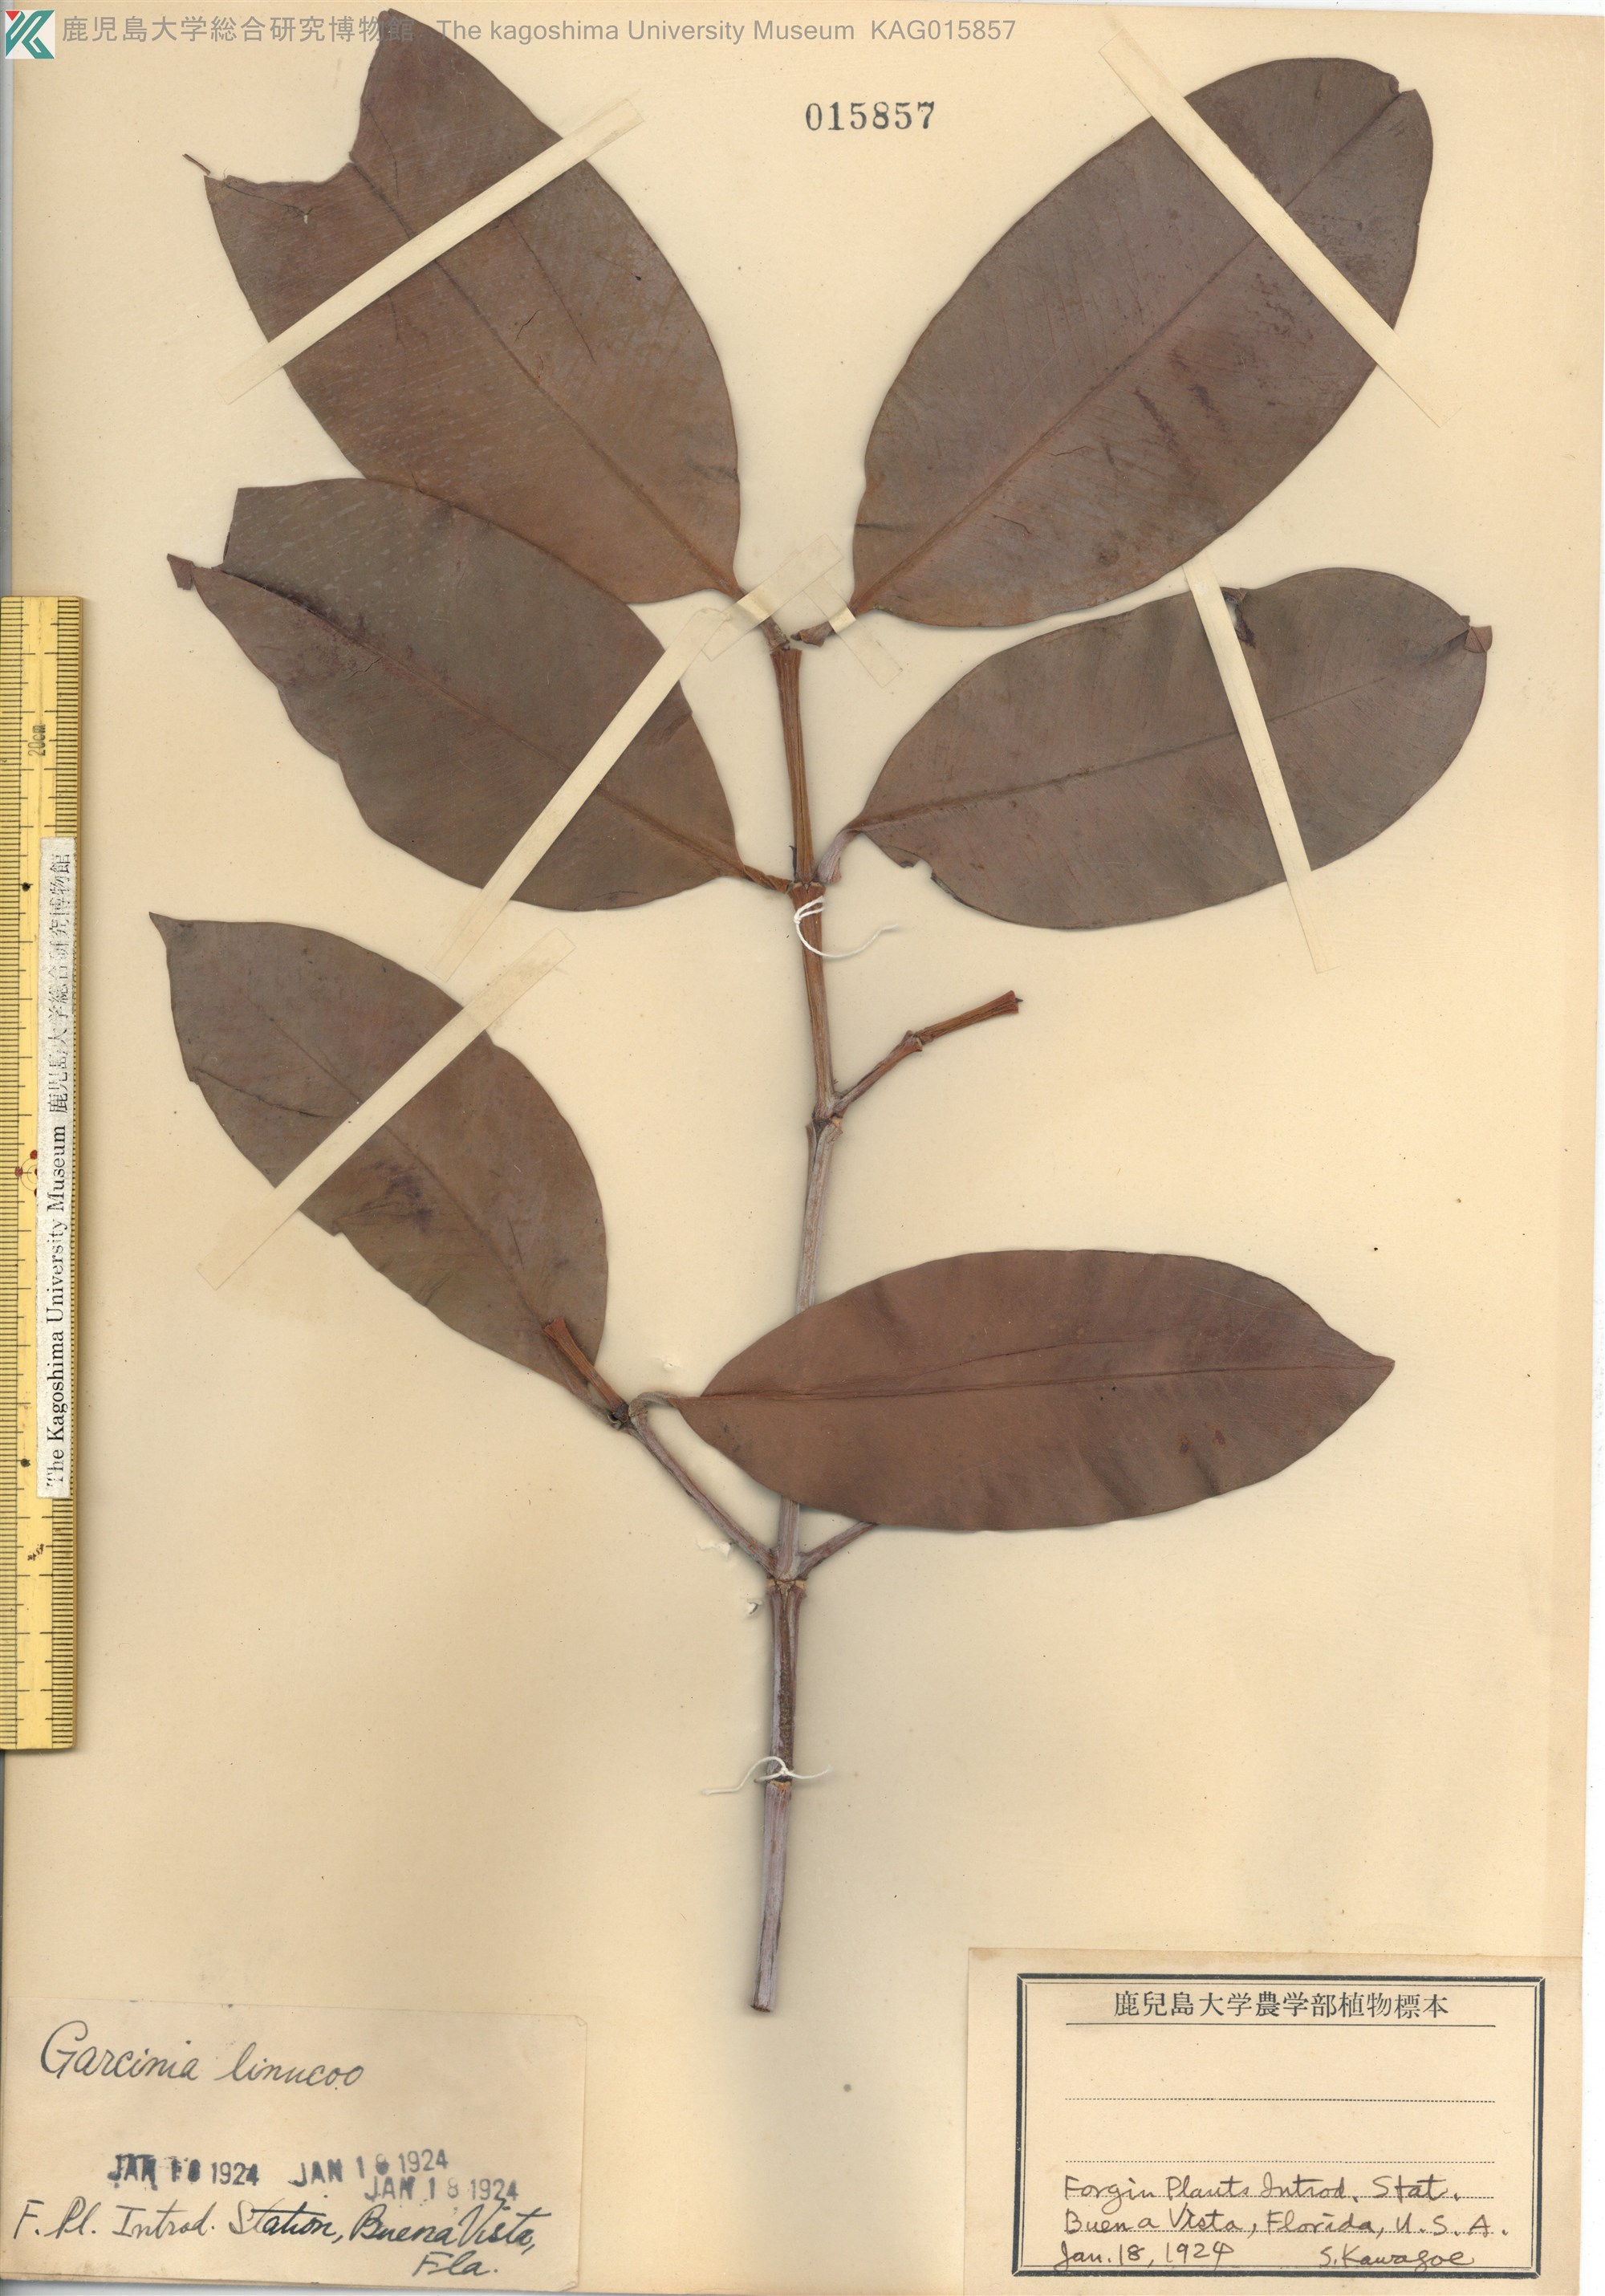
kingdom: Plantae
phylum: Tracheophyta
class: Magnoliopsida
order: Malpighiales
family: Clusiaceae
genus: Garcinia
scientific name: Garcinia
